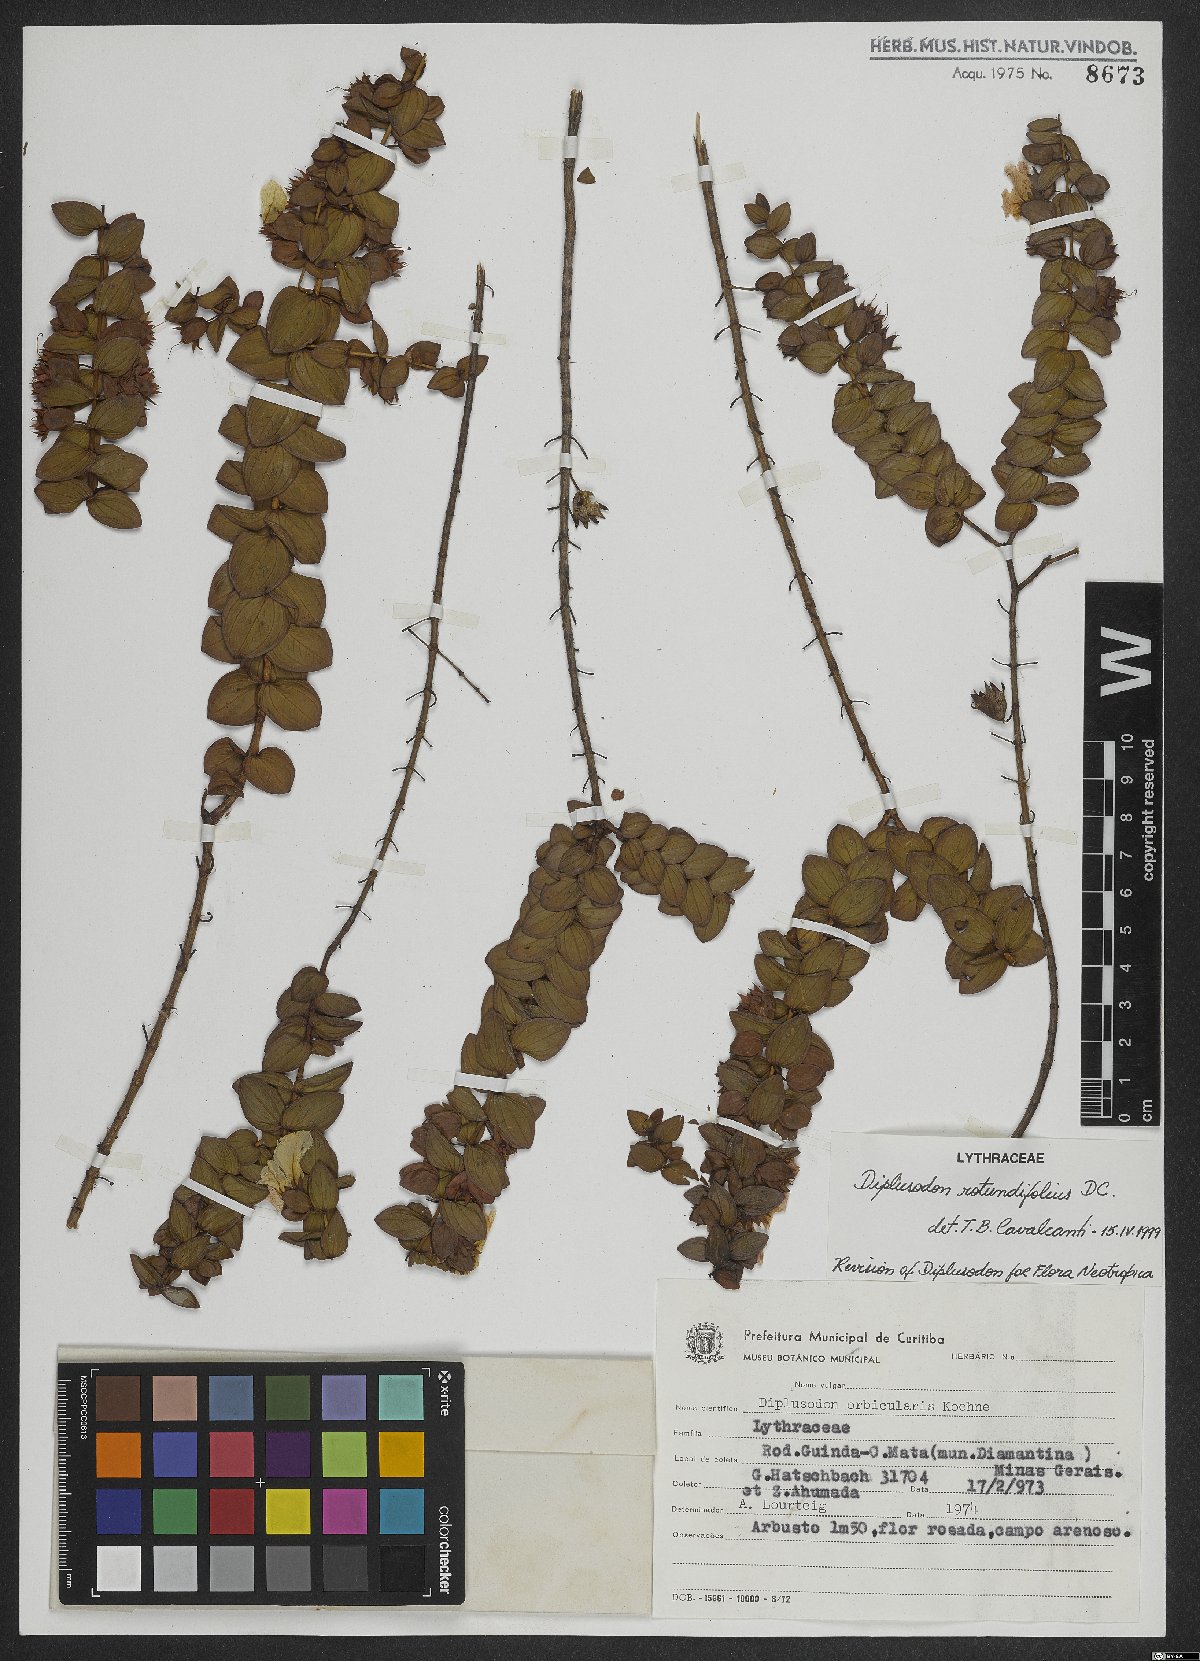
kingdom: Plantae
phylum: Tracheophyta
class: Magnoliopsida
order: Myrtales
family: Lythraceae
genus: Diplusodon
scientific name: Diplusodon rotundifolius
